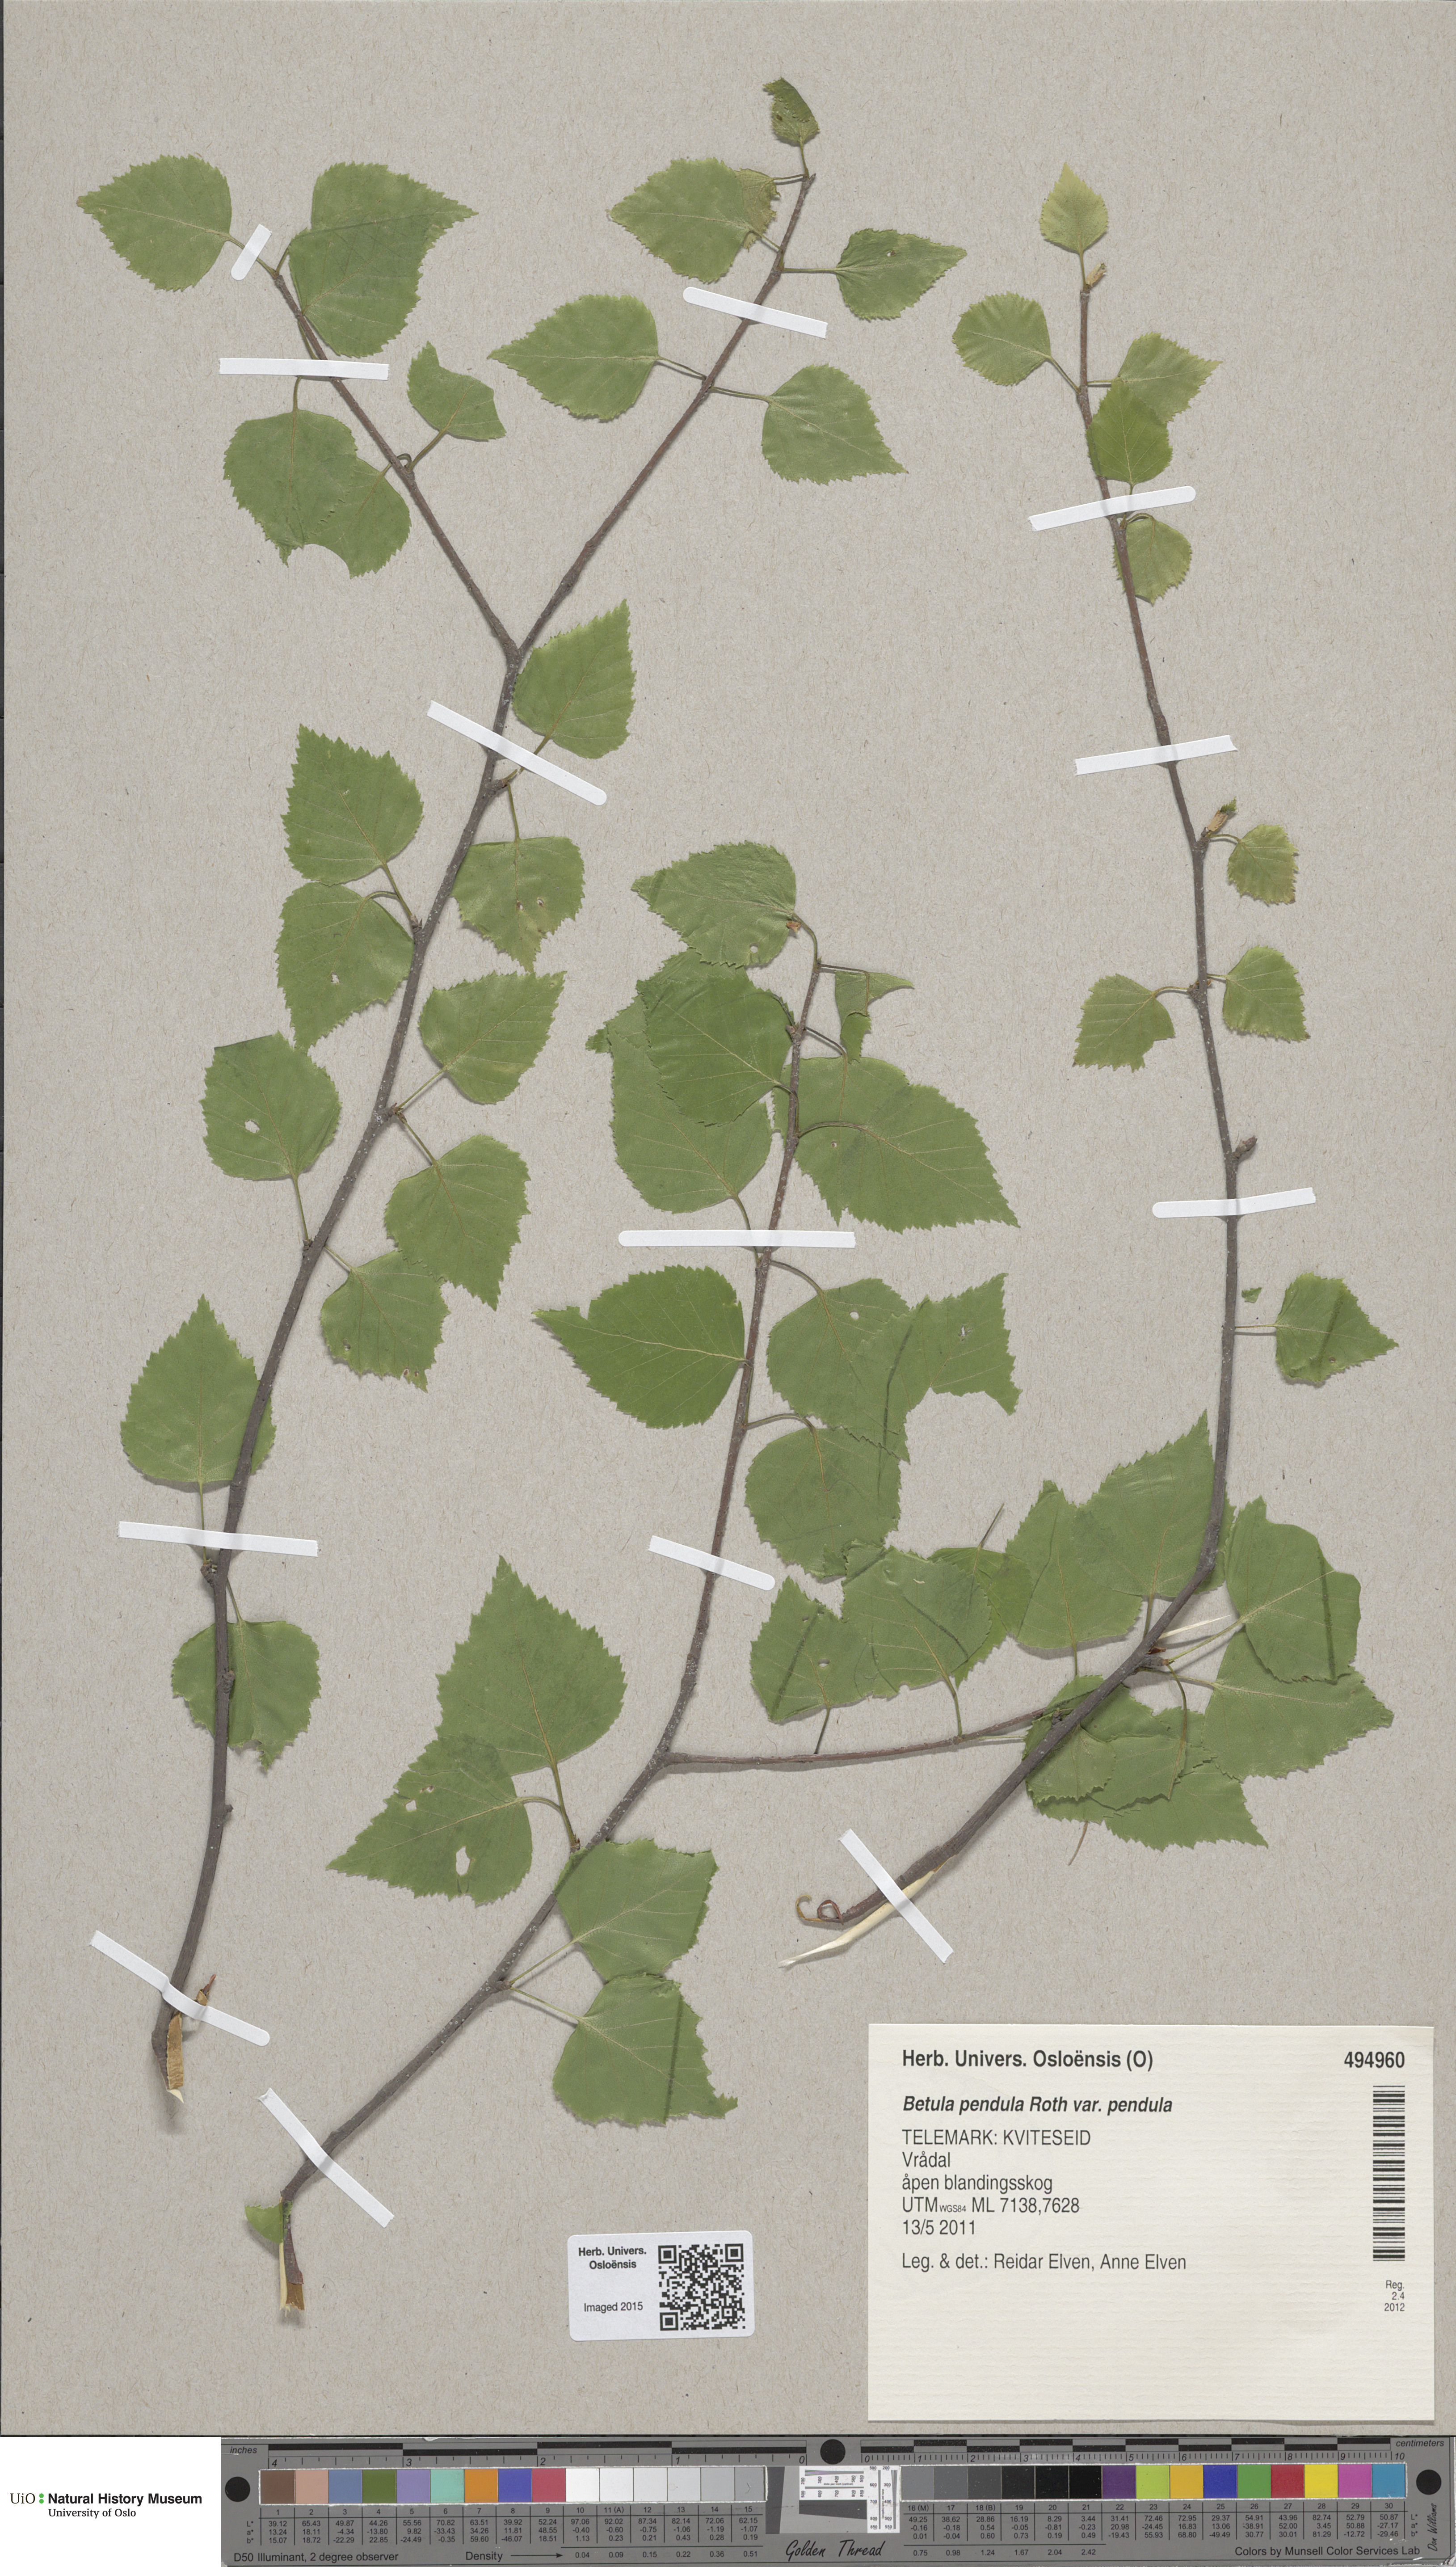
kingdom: Plantae
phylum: Tracheophyta
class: Magnoliopsida
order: Fagales
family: Betulaceae
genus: Betula
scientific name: Betula pendula
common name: Silver birch
